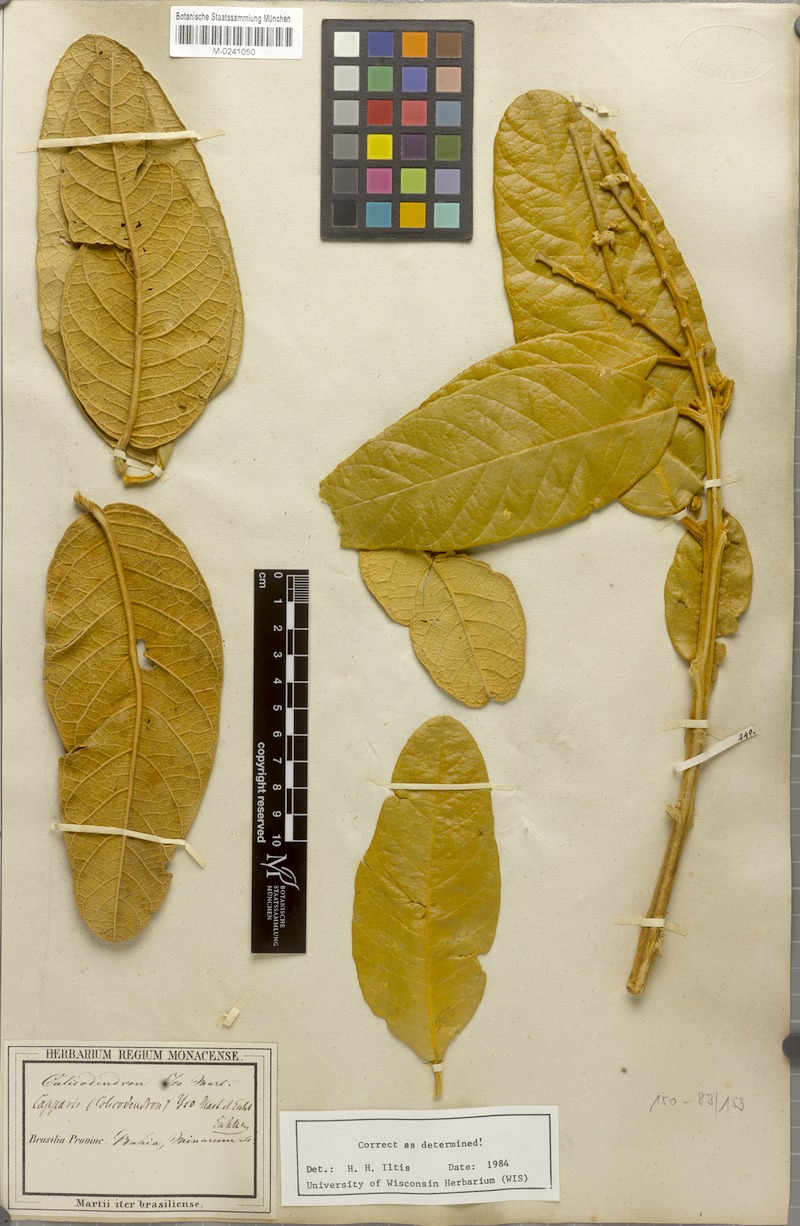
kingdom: Plantae
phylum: Tracheophyta
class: Magnoliopsida
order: Brassicales
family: Capparaceae
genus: Colicodendron
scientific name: Colicodendron yco
